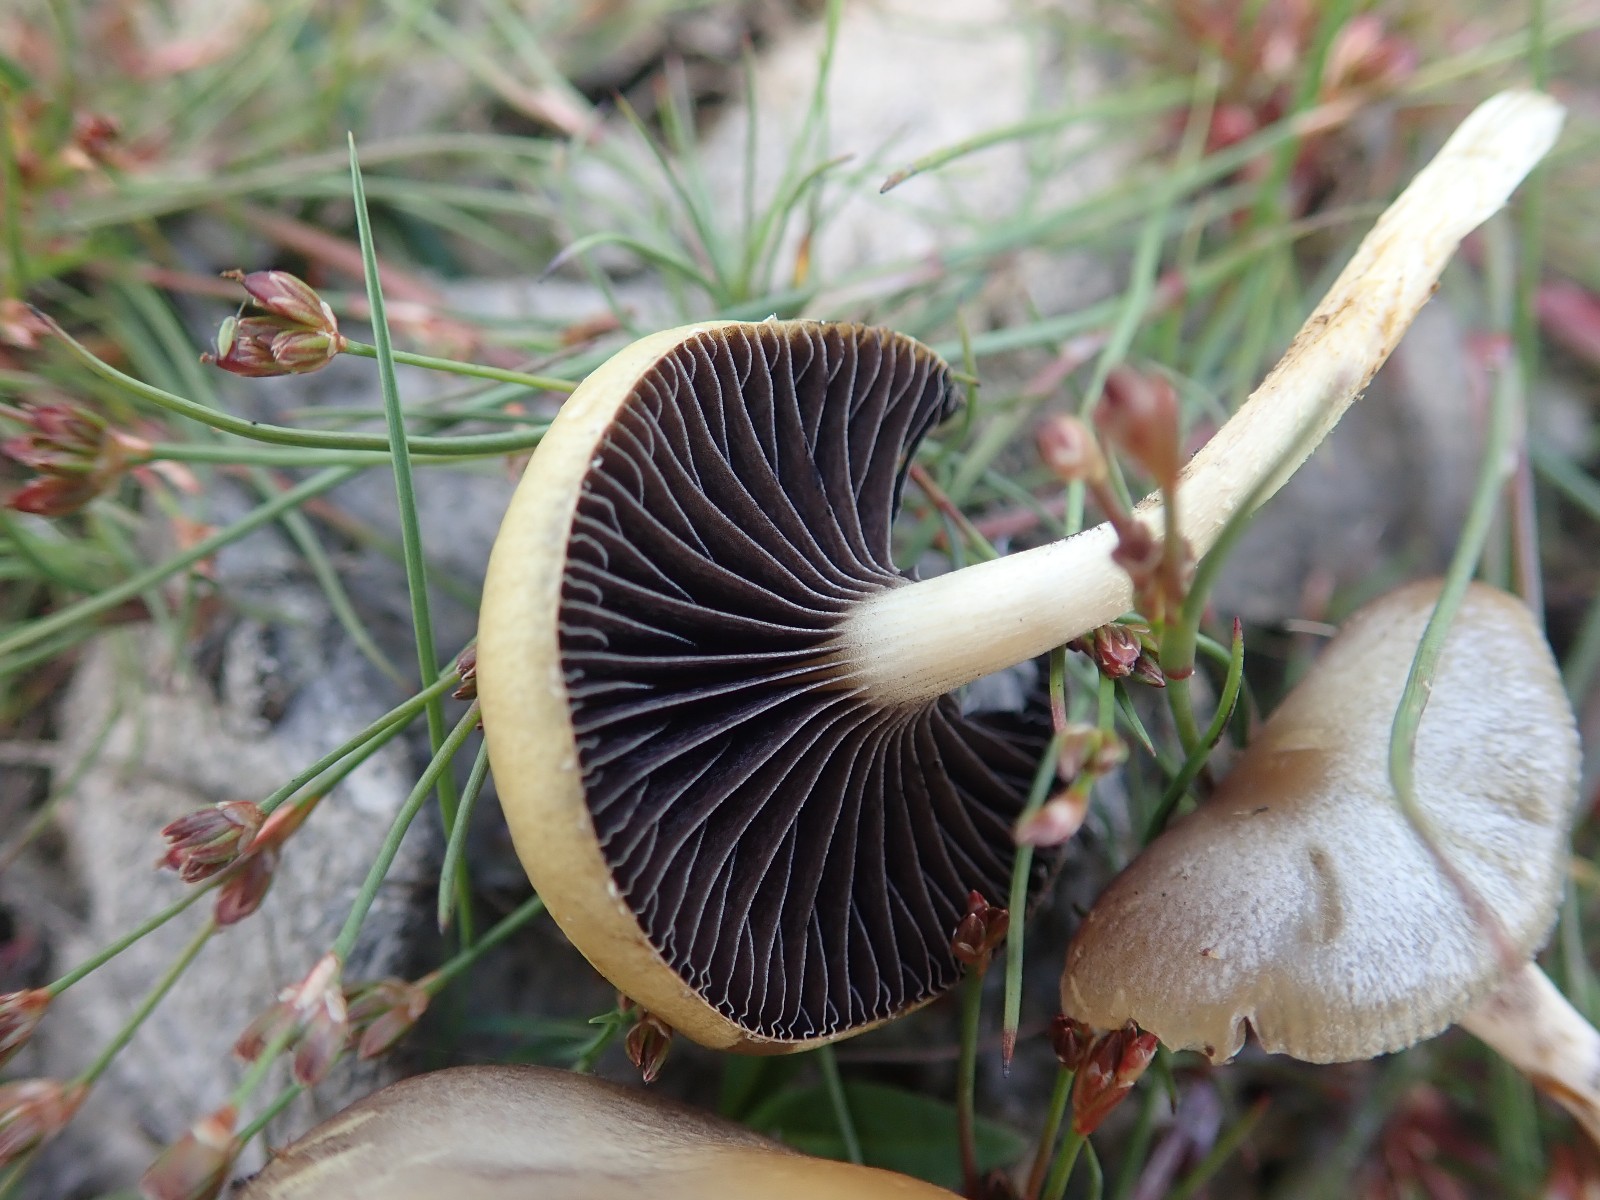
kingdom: Fungi
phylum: Basidiomycota
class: Agaricomycetes
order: Agaricales
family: Strophariaceae
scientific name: Strophariaceae
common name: bredbladfamilien
